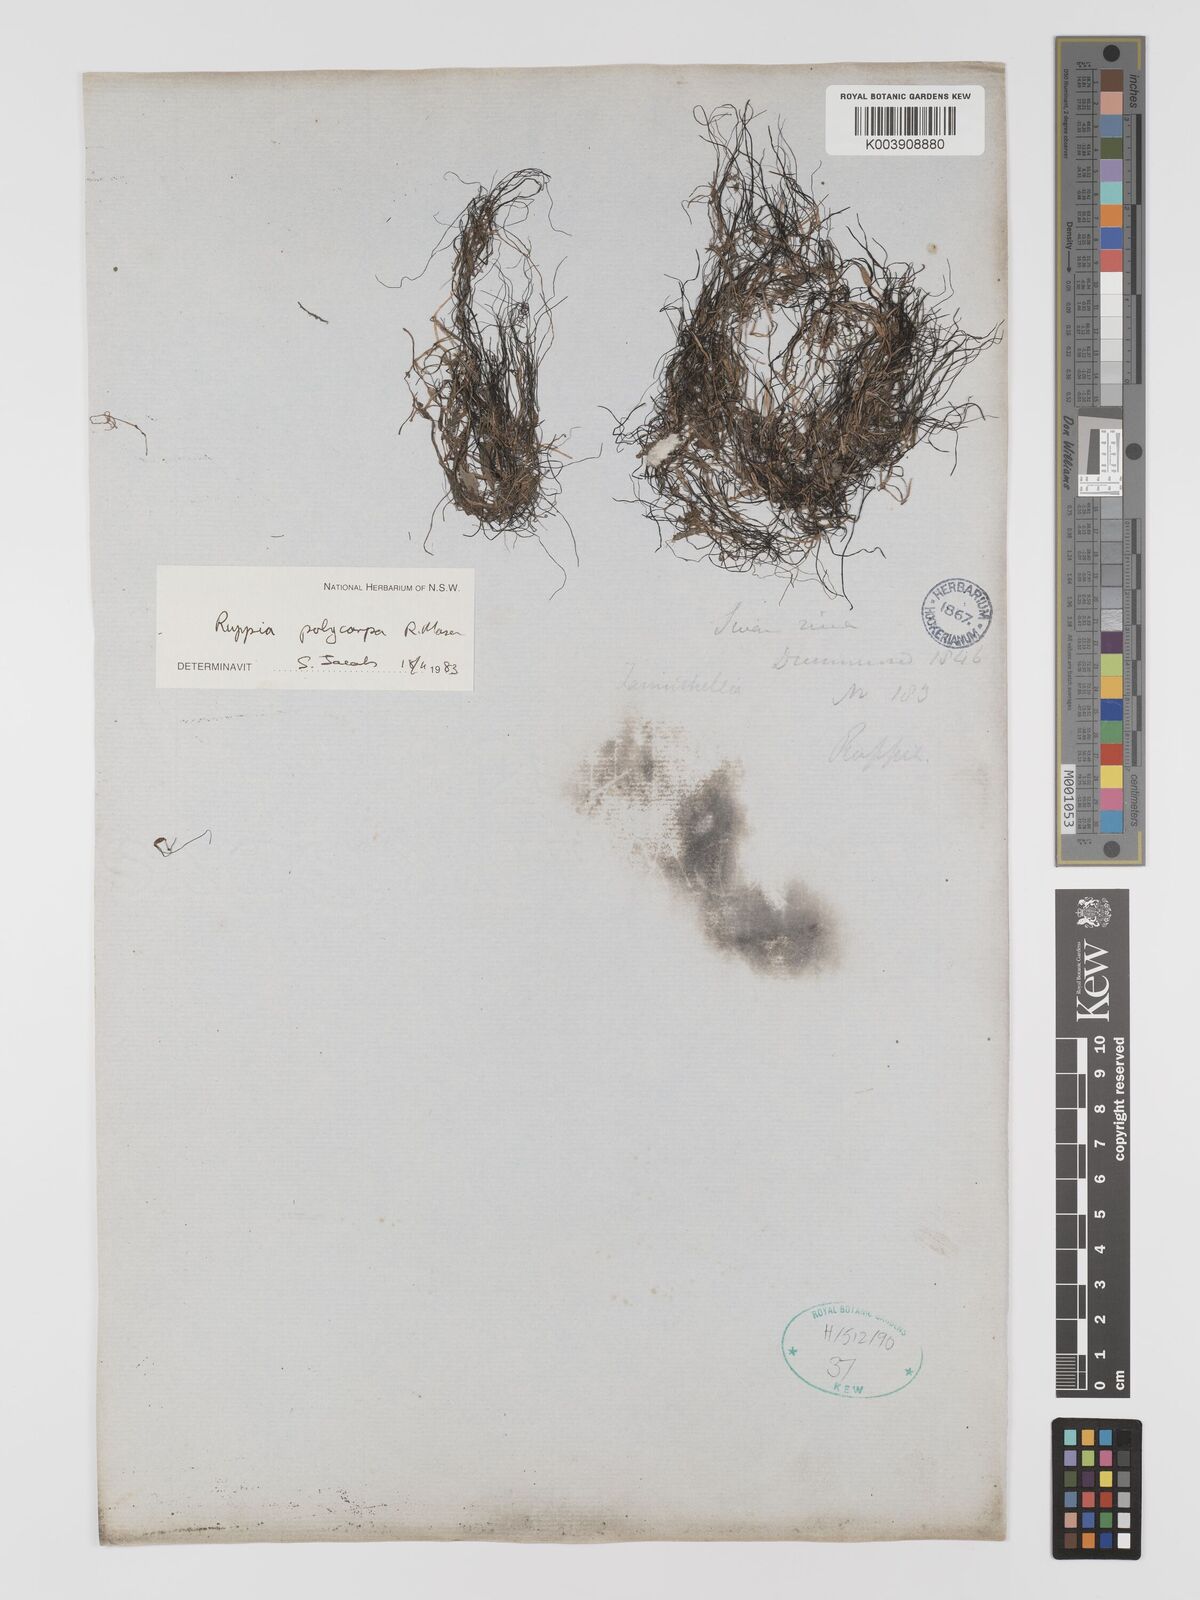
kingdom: Plantae
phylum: Tracheophyta
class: Liliopsida
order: Alismatales
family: Ruppiaceae
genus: Ruppia
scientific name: Ruppia polycarpa
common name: Species code: rp
